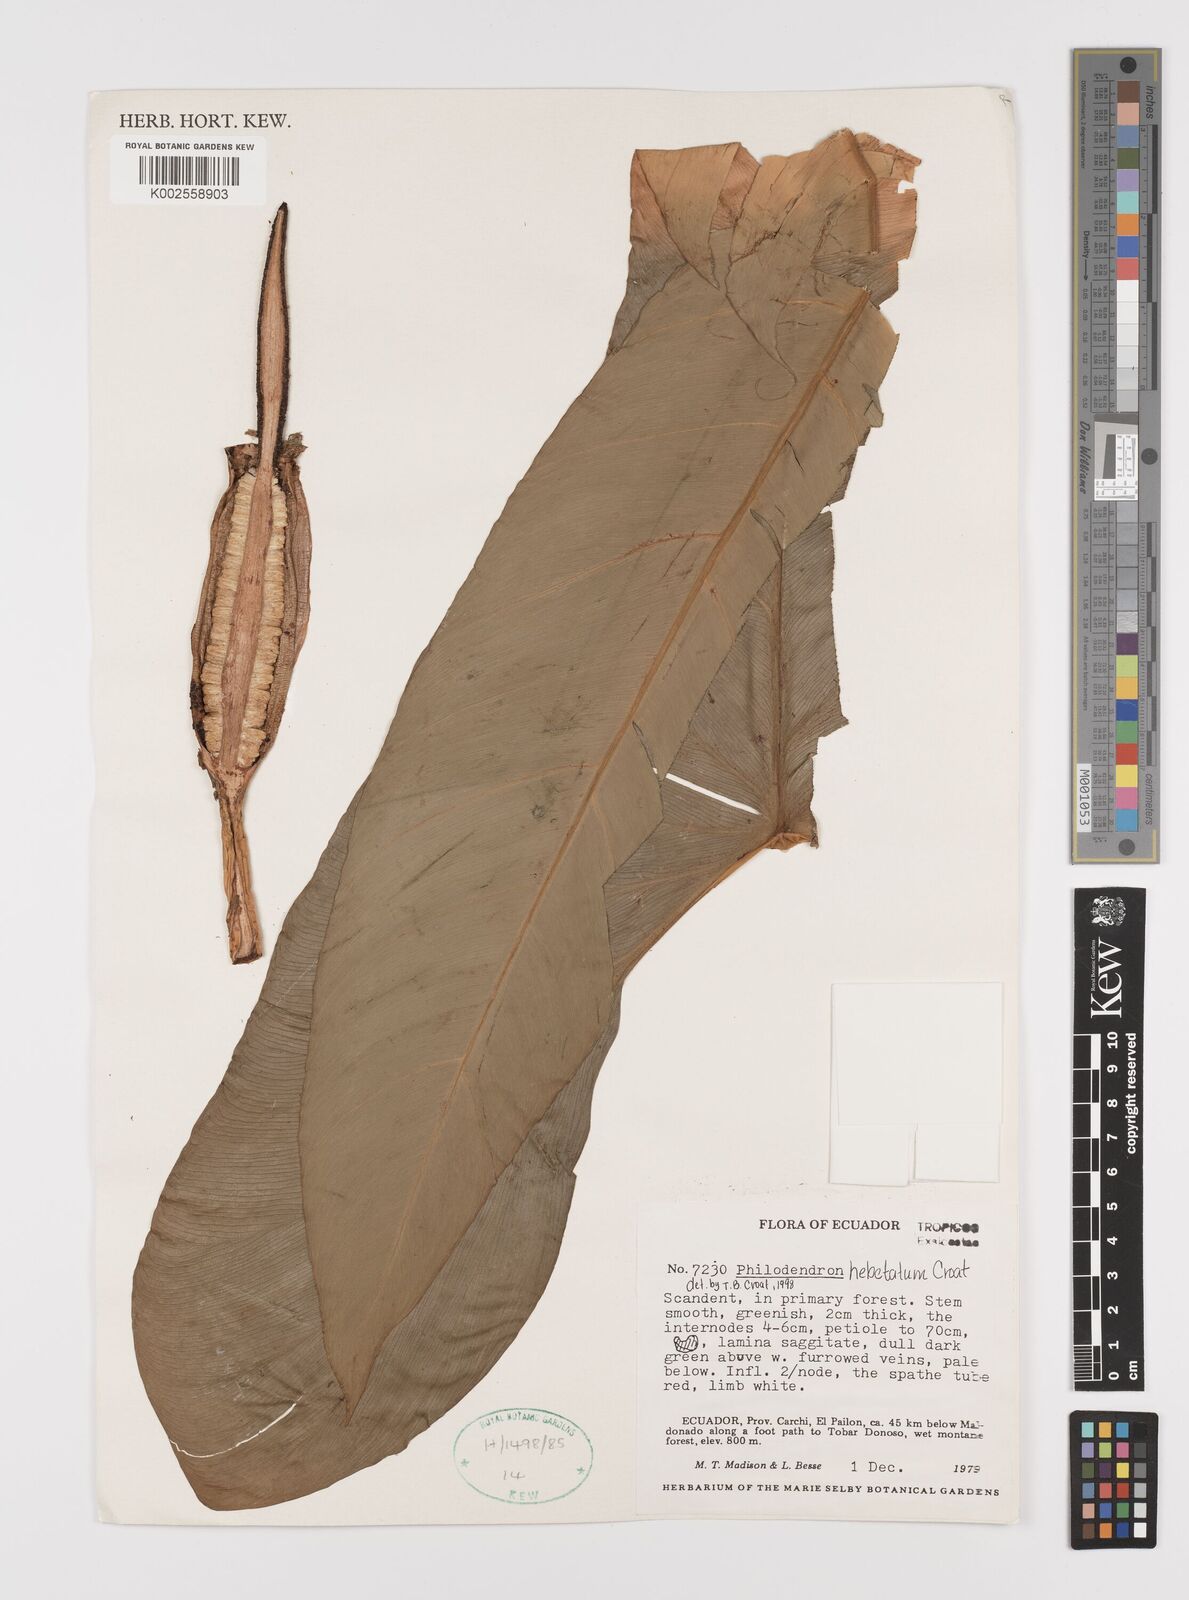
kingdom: Plantae
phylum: Tracheophyta
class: Liliopsida
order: Alismatales
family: Araceae
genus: Philodendron
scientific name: Philodendron hebetatum
